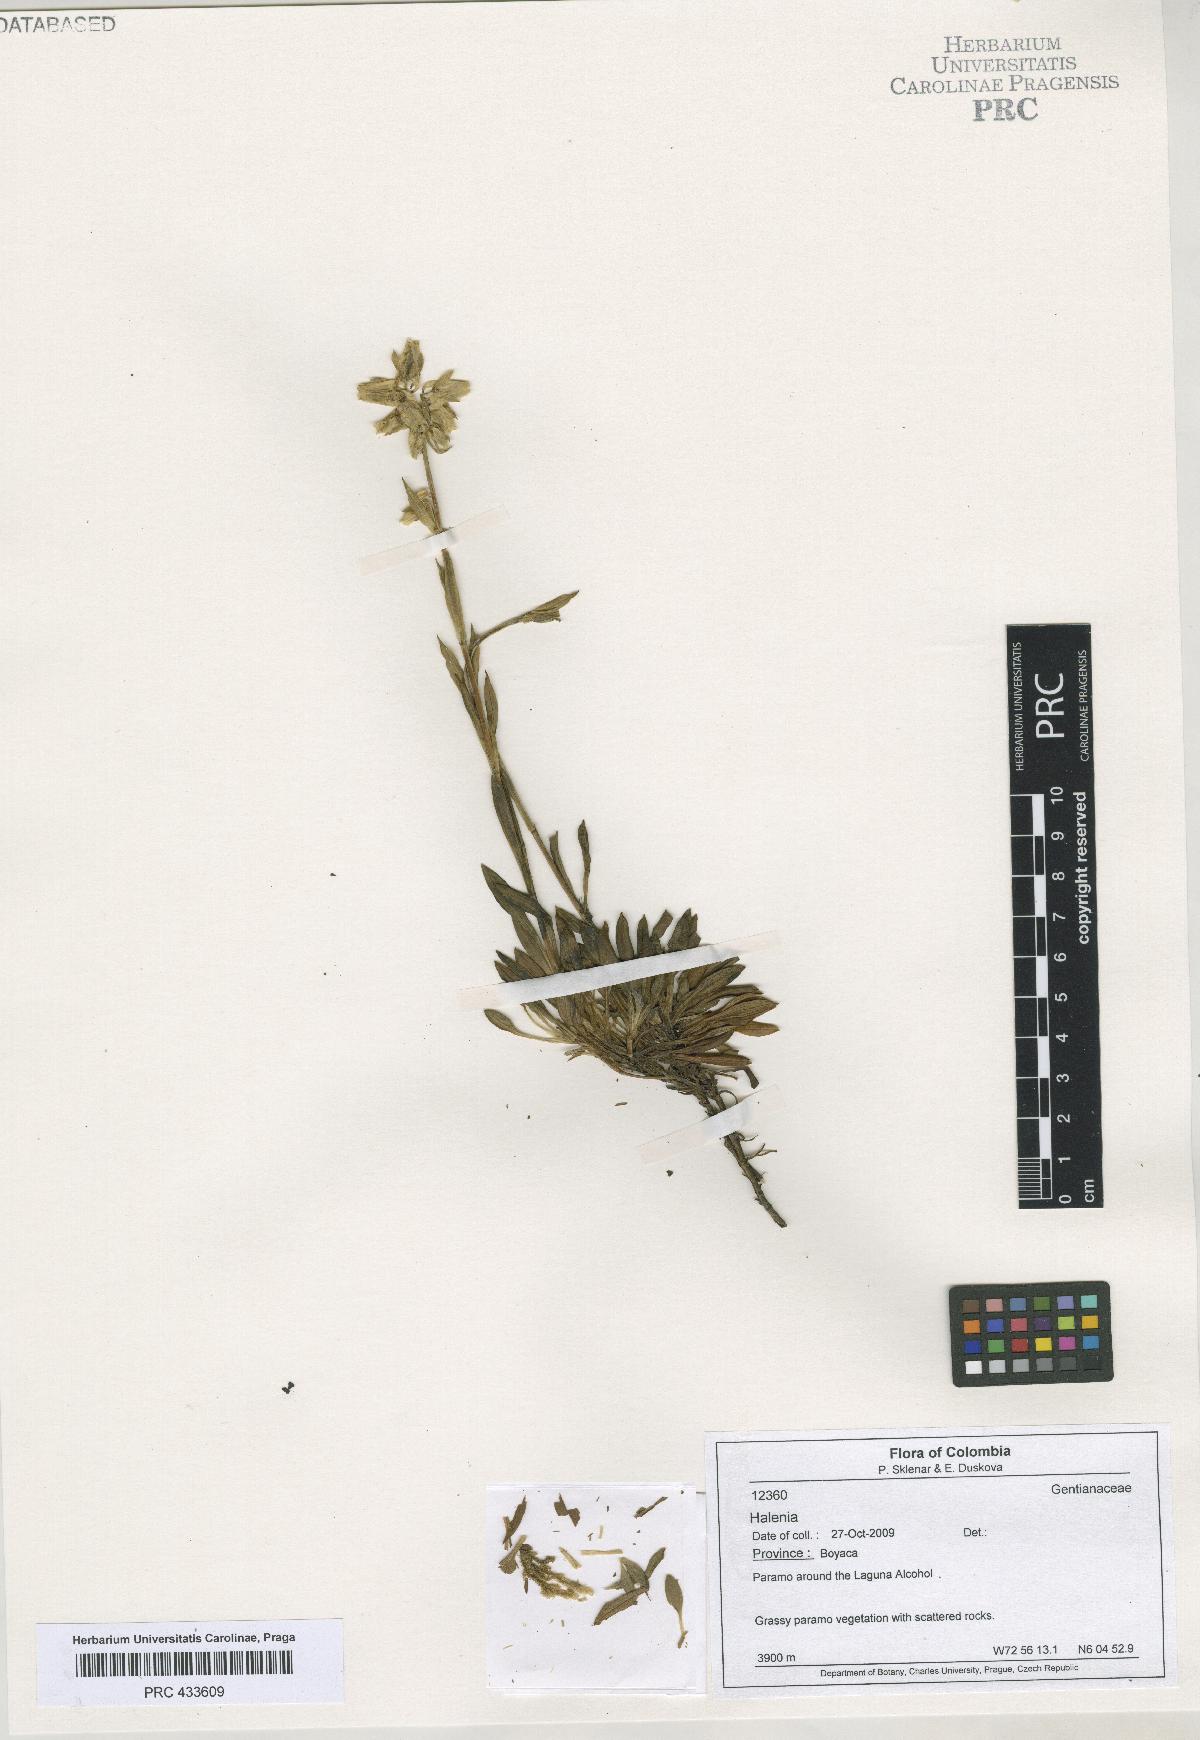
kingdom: Plantae
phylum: Tracheophyta
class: Magnoliopsida
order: Gentianales
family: Gentianaceae
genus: Halenia
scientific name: Halenia
